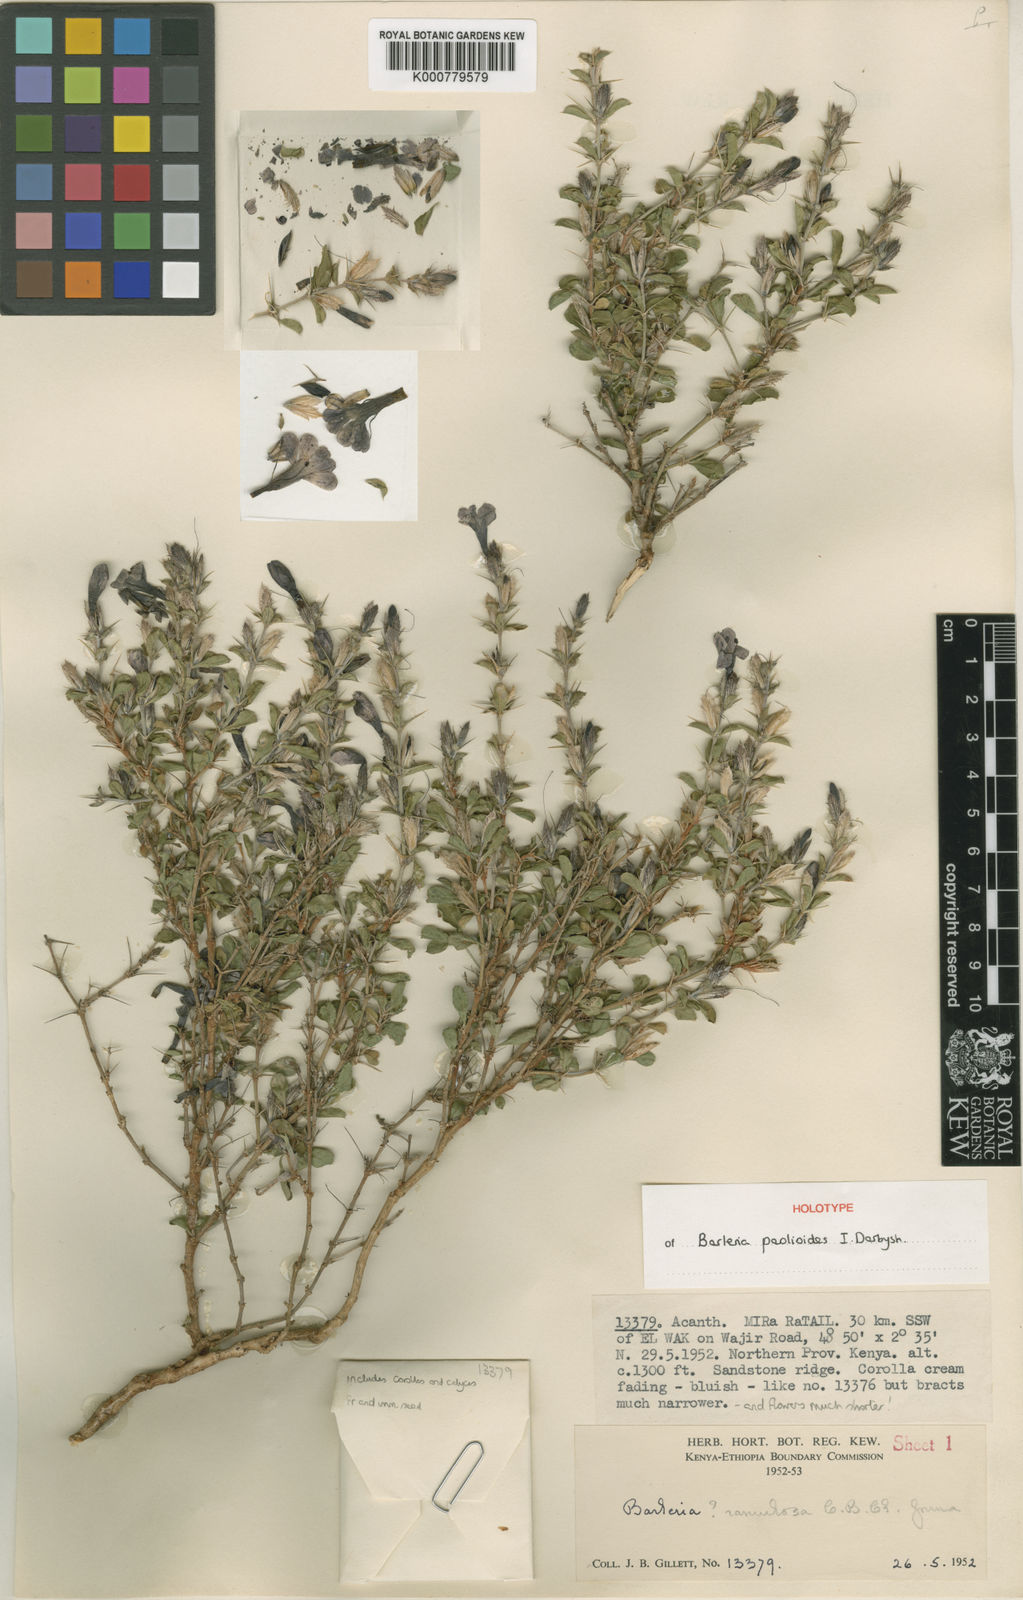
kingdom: Plantae
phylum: Tracheophyta
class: Magnoliopsida
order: Lamiales
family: Acanthaceae
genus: Barleria
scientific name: Barleria paolioides
